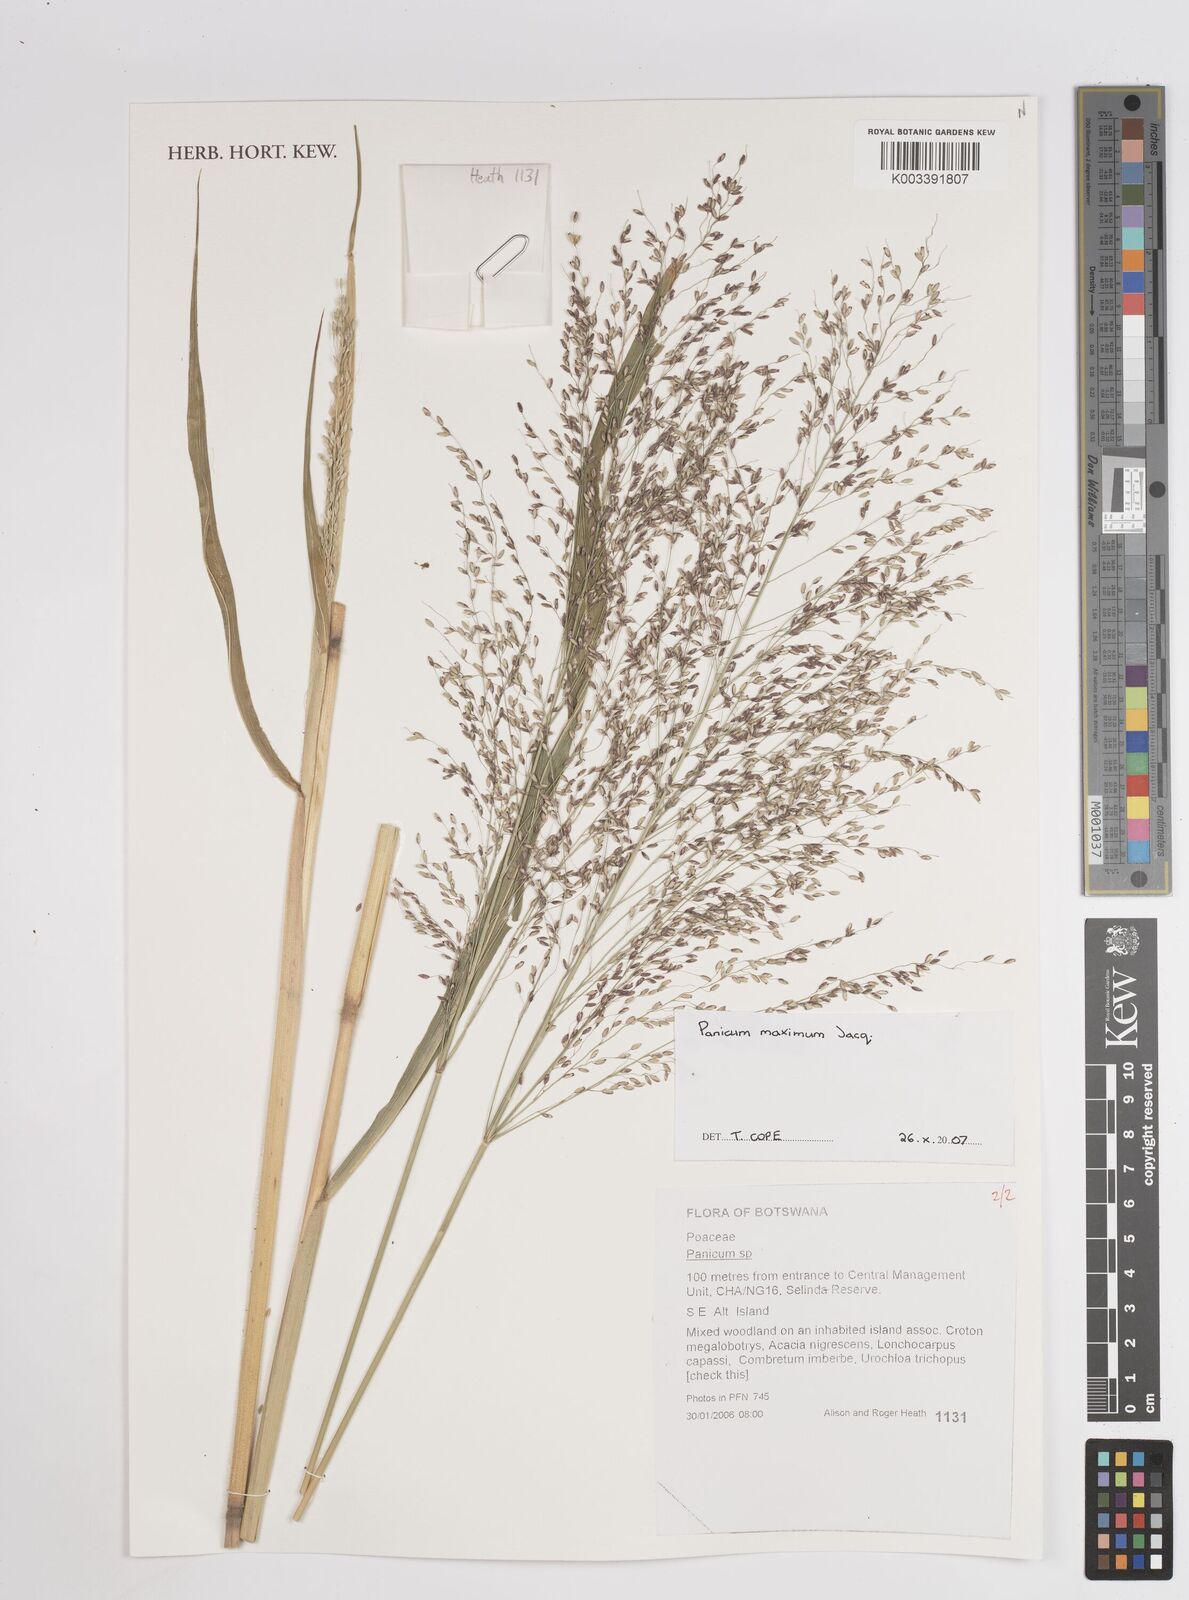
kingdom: Plantae
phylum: Tracheophyta
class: Liliopsida
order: Poales
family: Poaceae
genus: Megathyrsus
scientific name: Megathyrsus maximus
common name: Guineagrass
